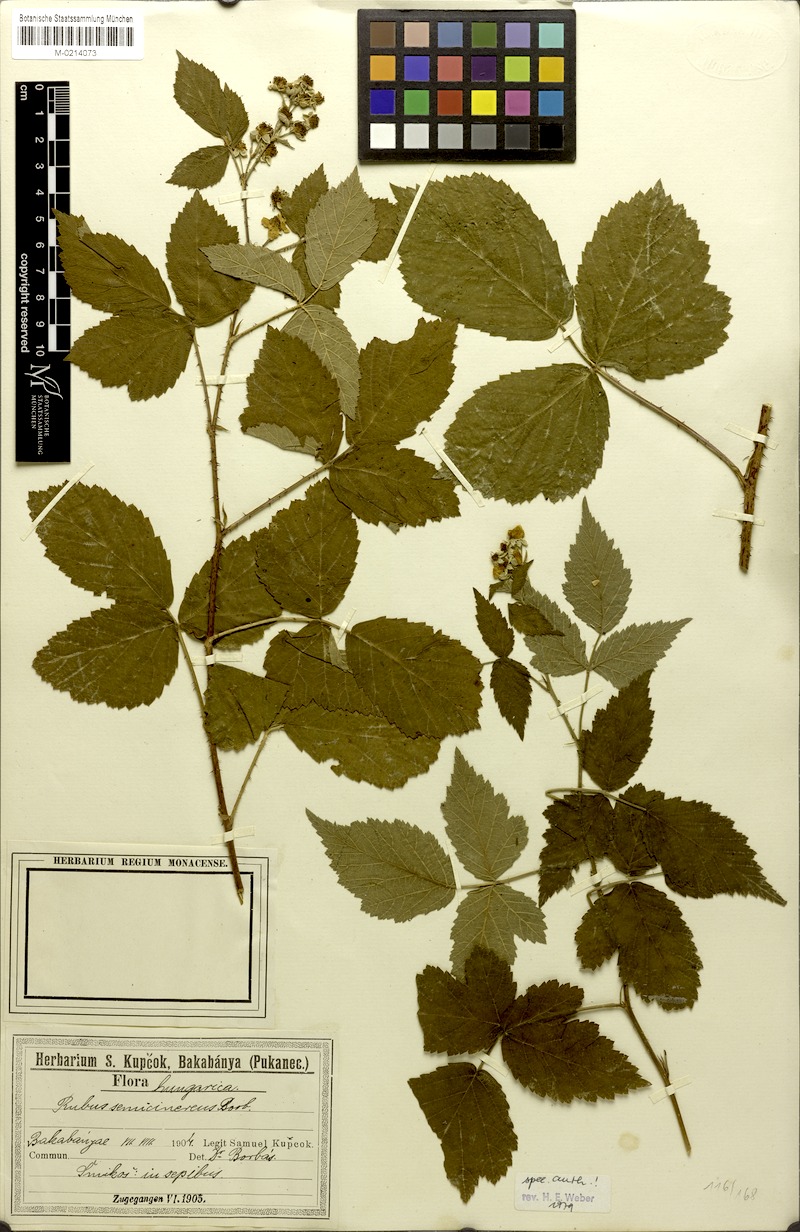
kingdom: Plantae
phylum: Tracheophyta
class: Magnoliopsida
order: Rosales
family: Rosaceae
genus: Rubus
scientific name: Rubus semicinereus
